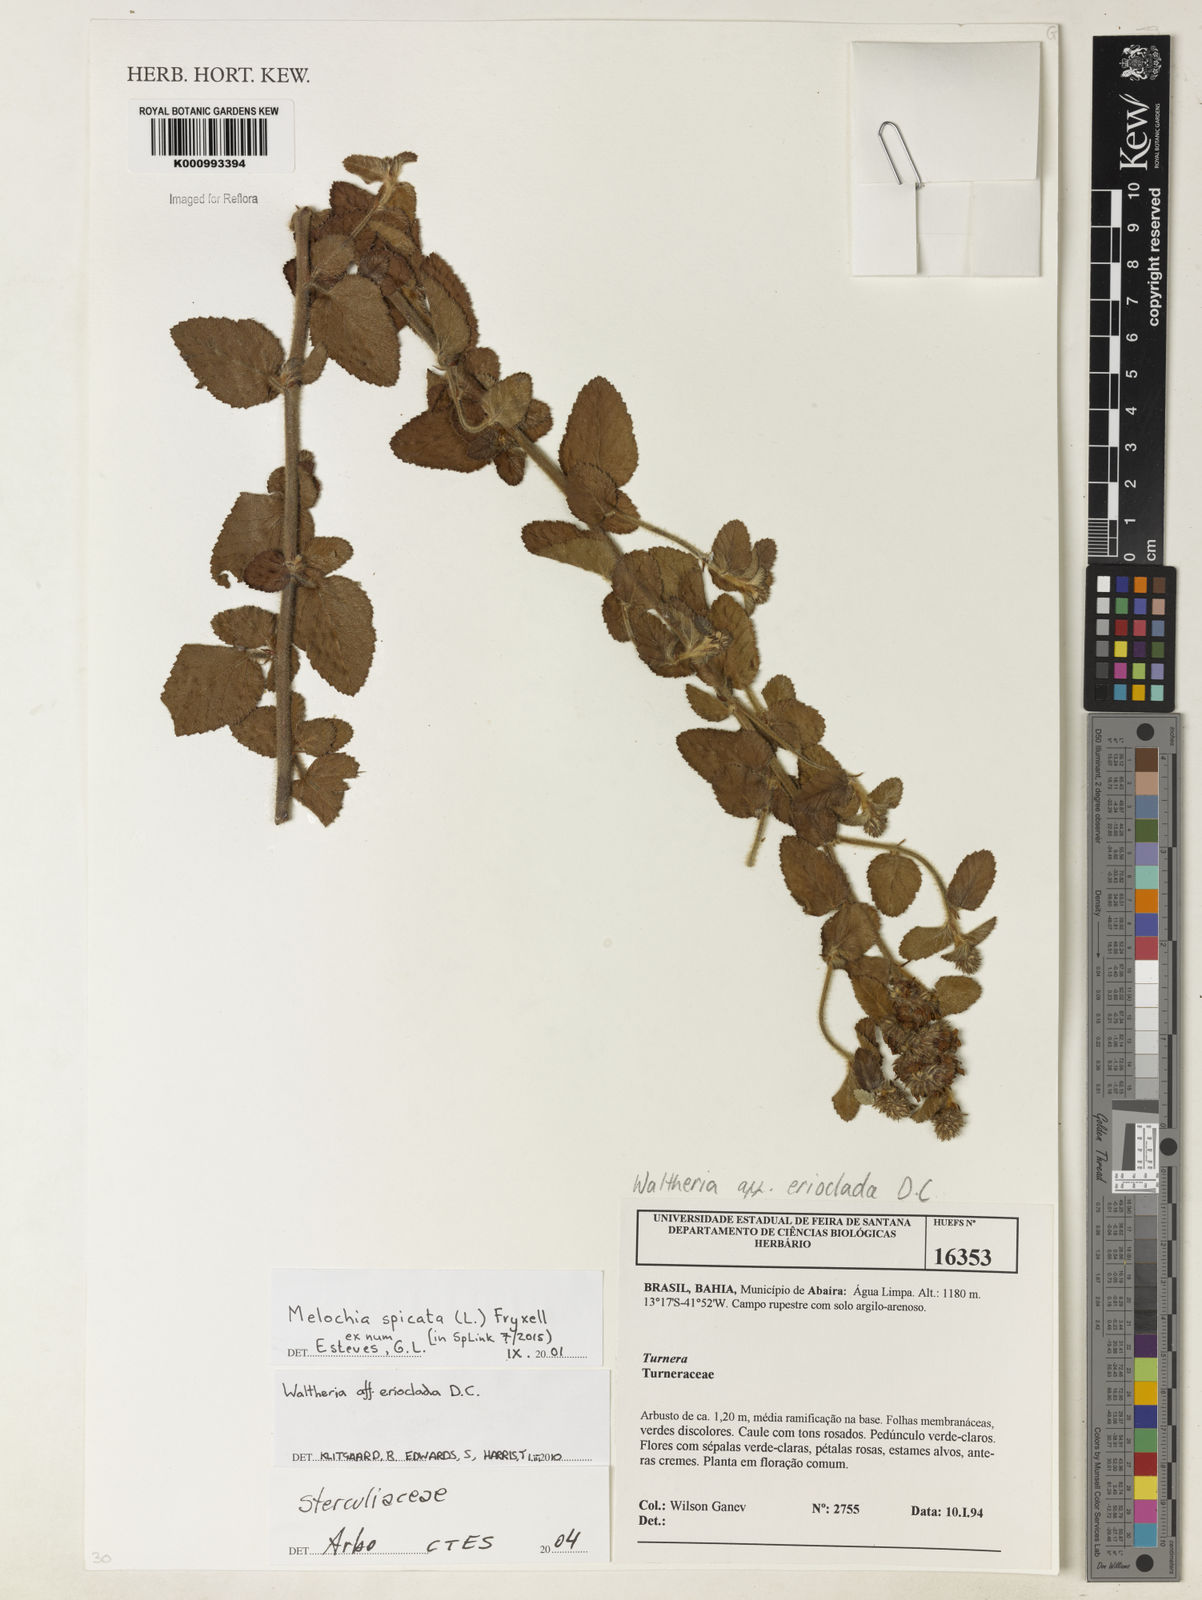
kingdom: Plantae
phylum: Tracheophyta
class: Magnoliopsida
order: Malvales
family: Malvaceae
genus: Melochia
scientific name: Melochia spicata
